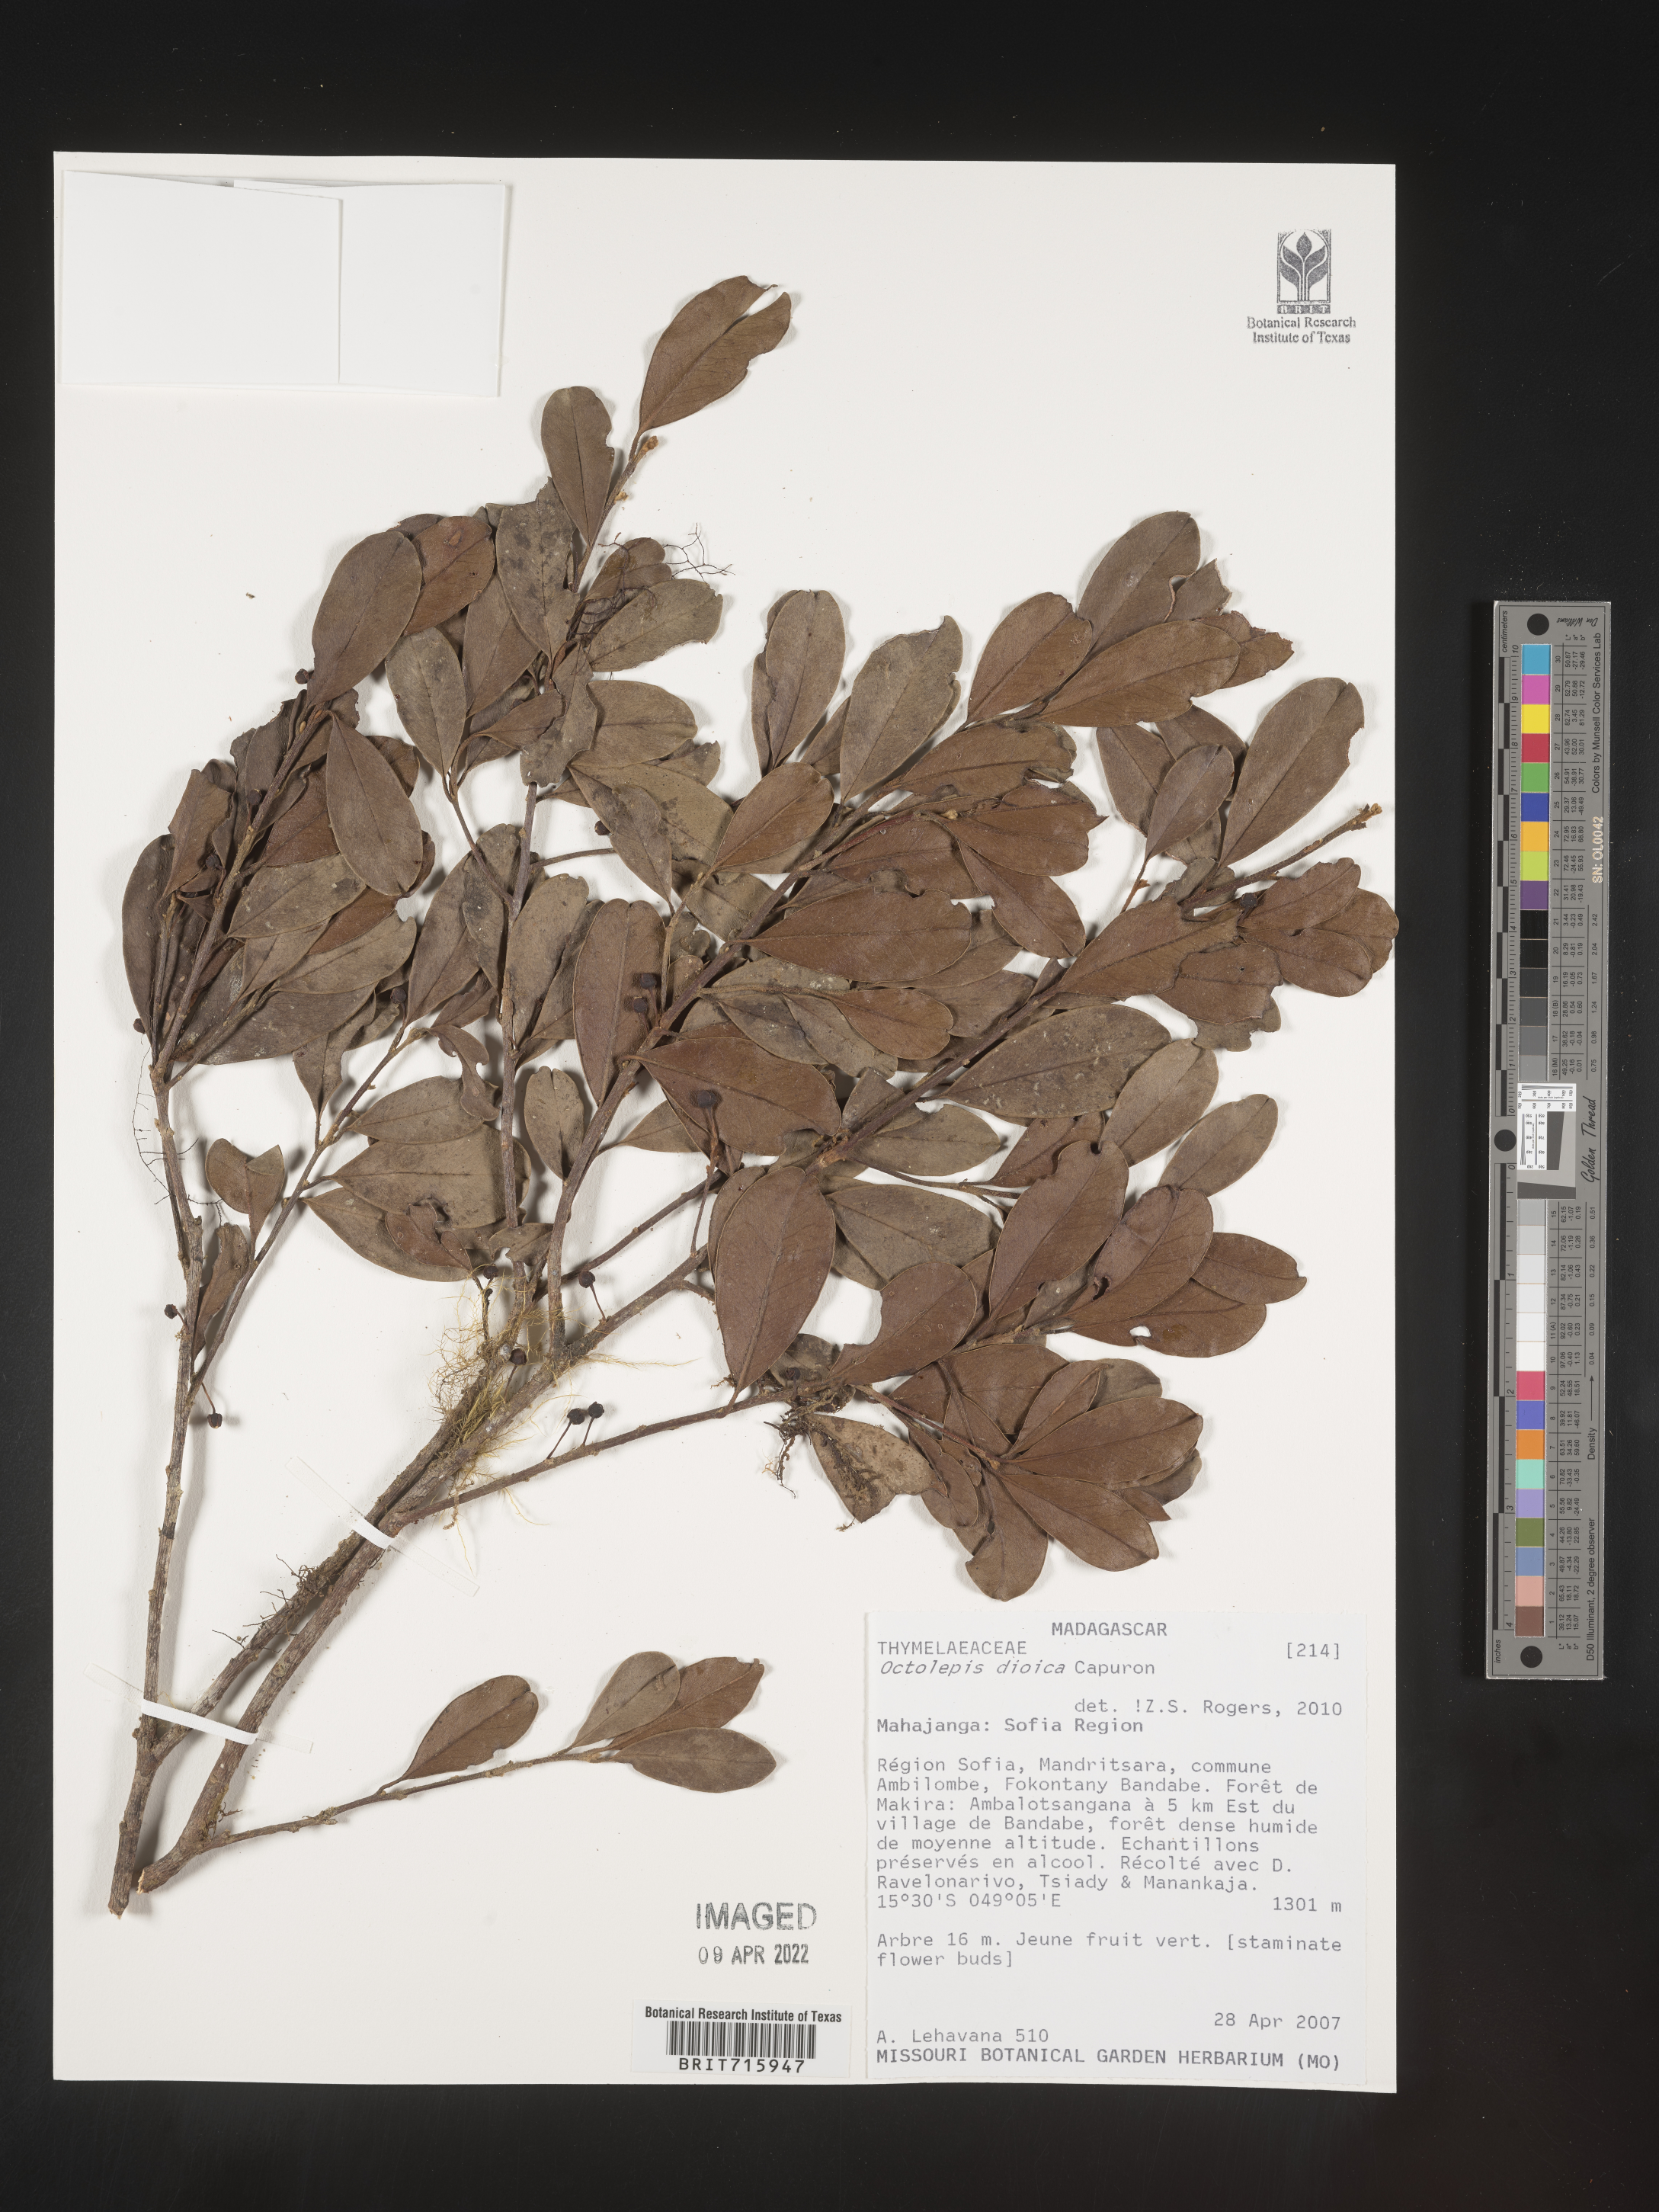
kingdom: Plantae
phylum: Tracheophyta
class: Magnoliopsida
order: Malvales
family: Thymelaeaceae
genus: Octolepis
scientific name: Octolepis
